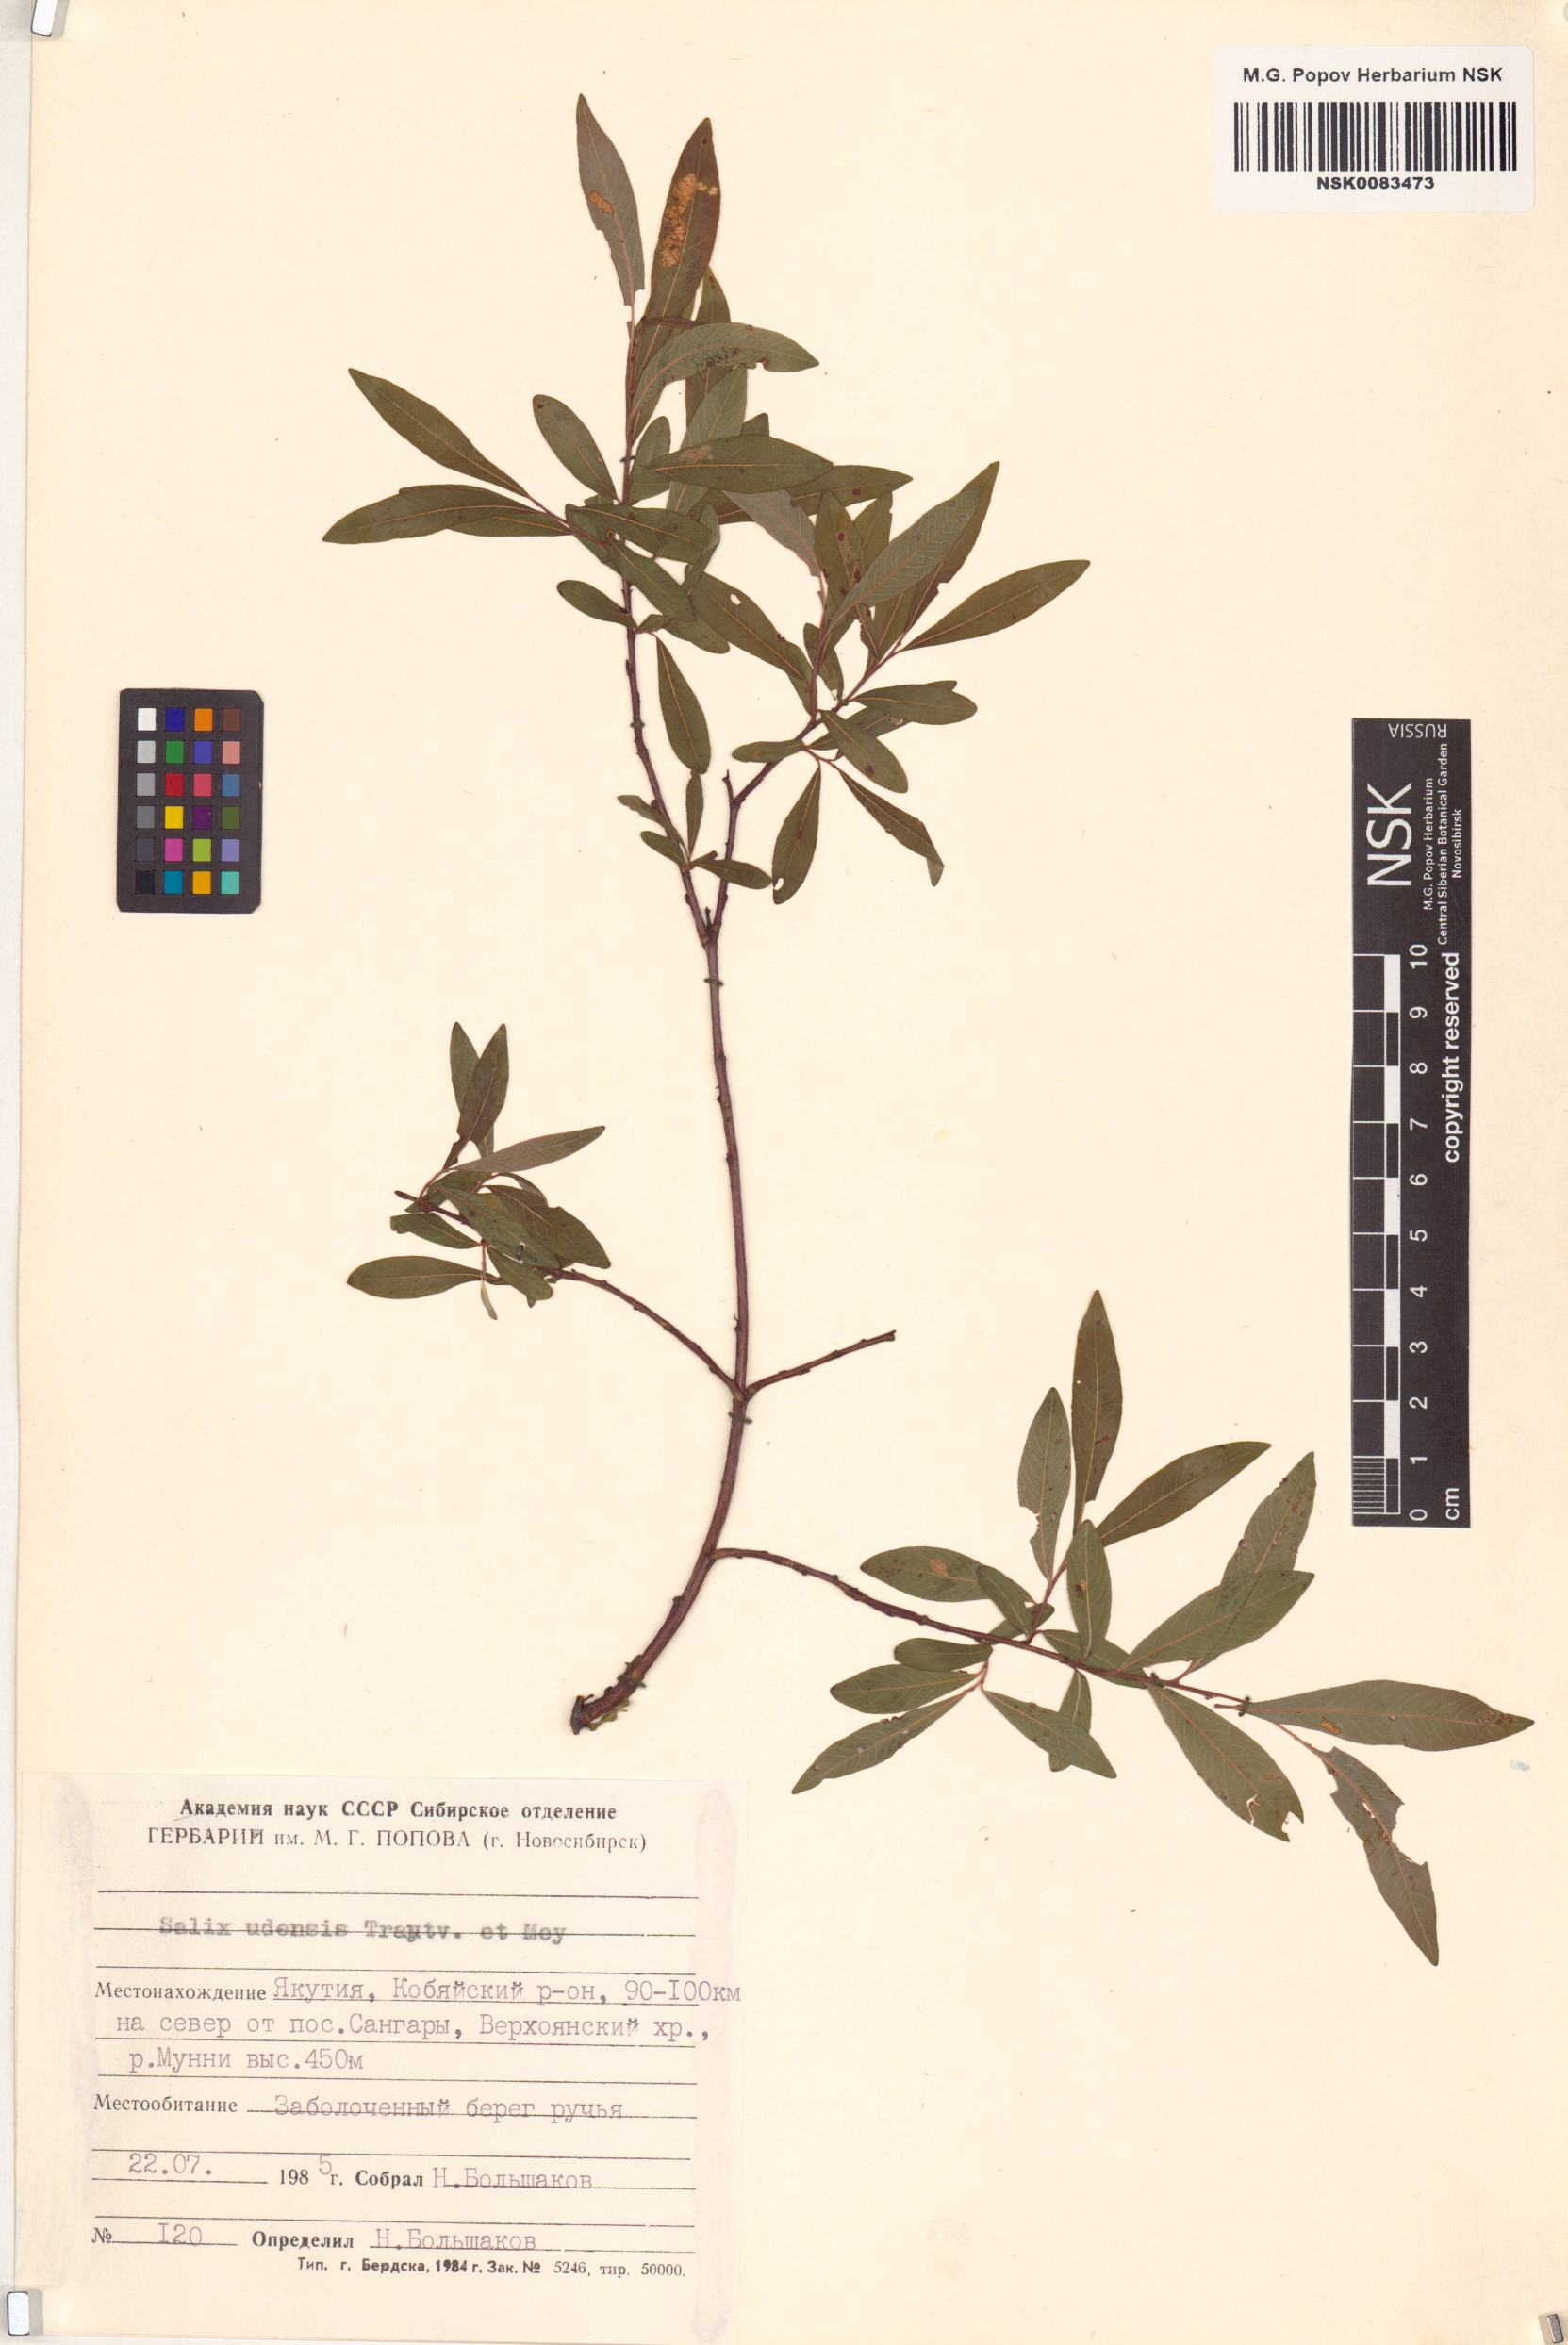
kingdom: Plantae
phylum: Tracheophyta
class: Magnoliopsida
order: Malpighiales
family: Salicaceae
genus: Salix
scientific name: Salix udensis
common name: Sachalin willow
